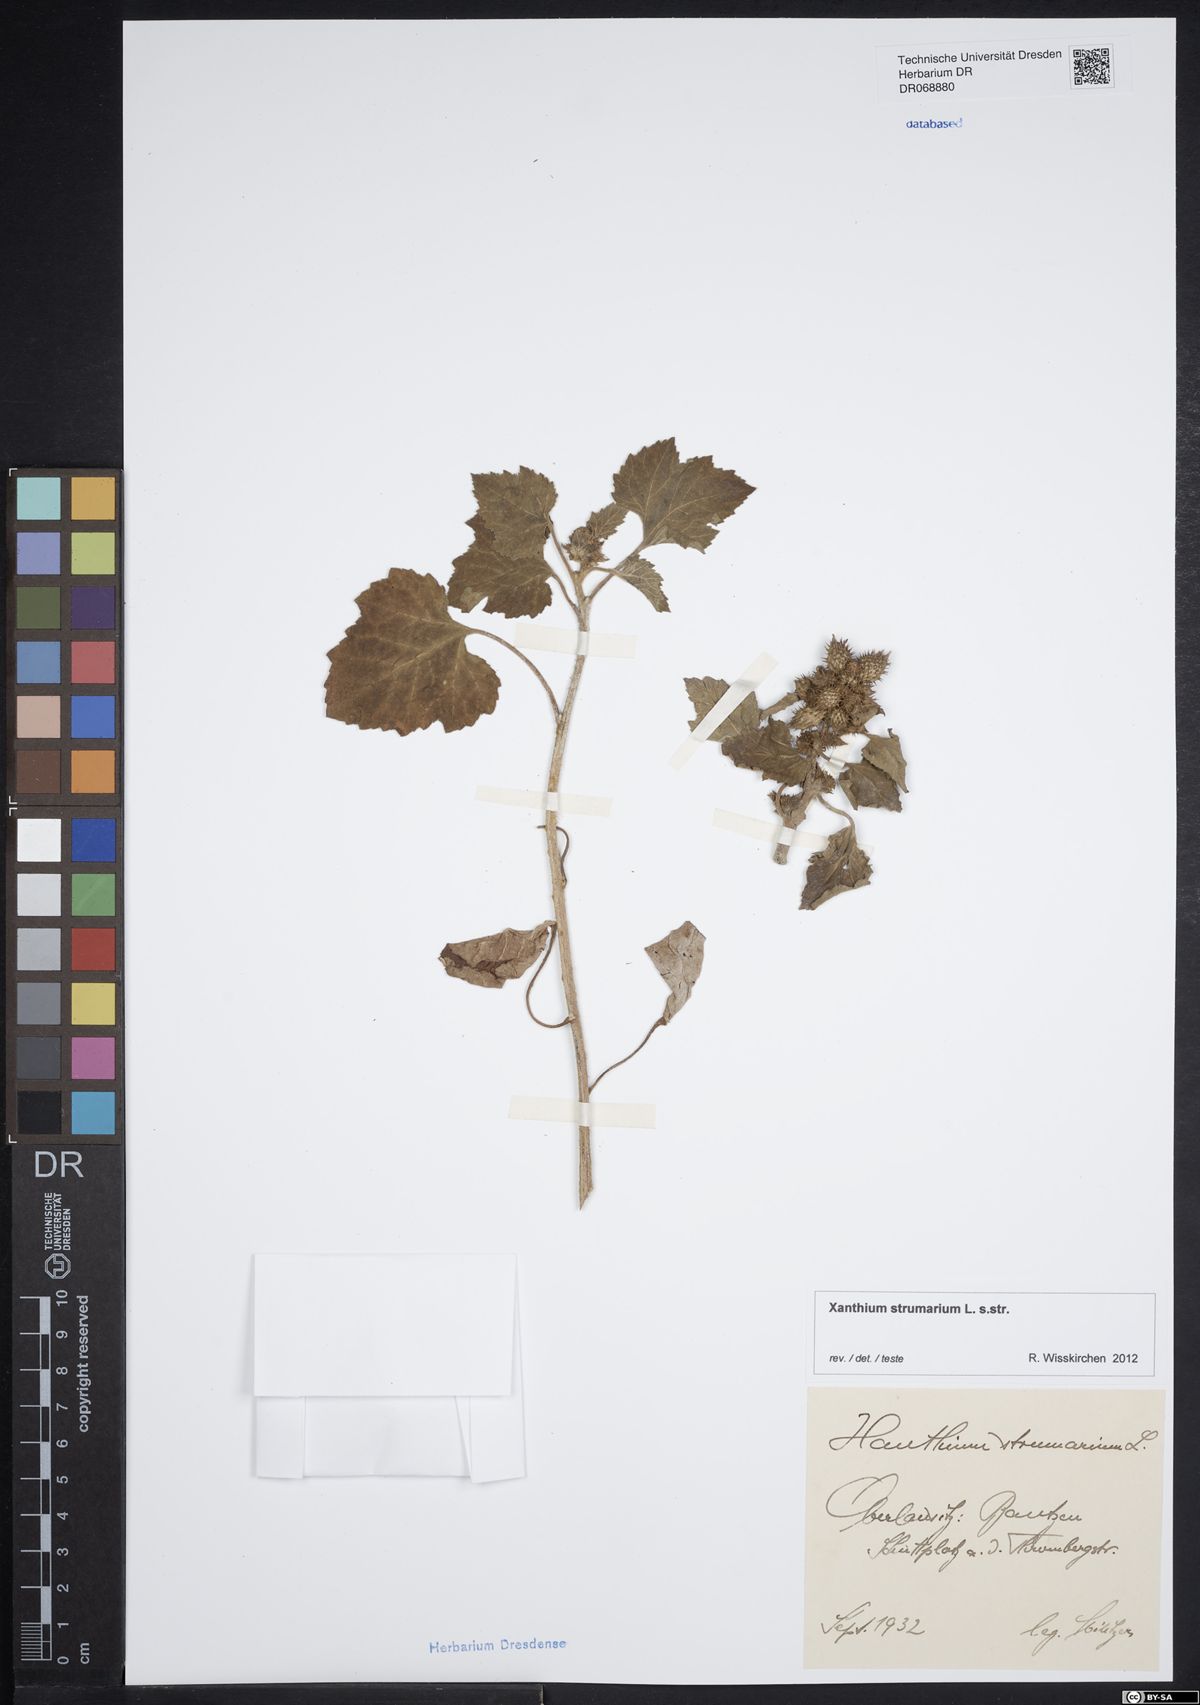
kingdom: Plantae
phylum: Tracheophyta
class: Magnoliopsida
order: Asterales
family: Asteraceae
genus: Xanthium
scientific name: Xanthium strumarium
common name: Rough cocklebur
